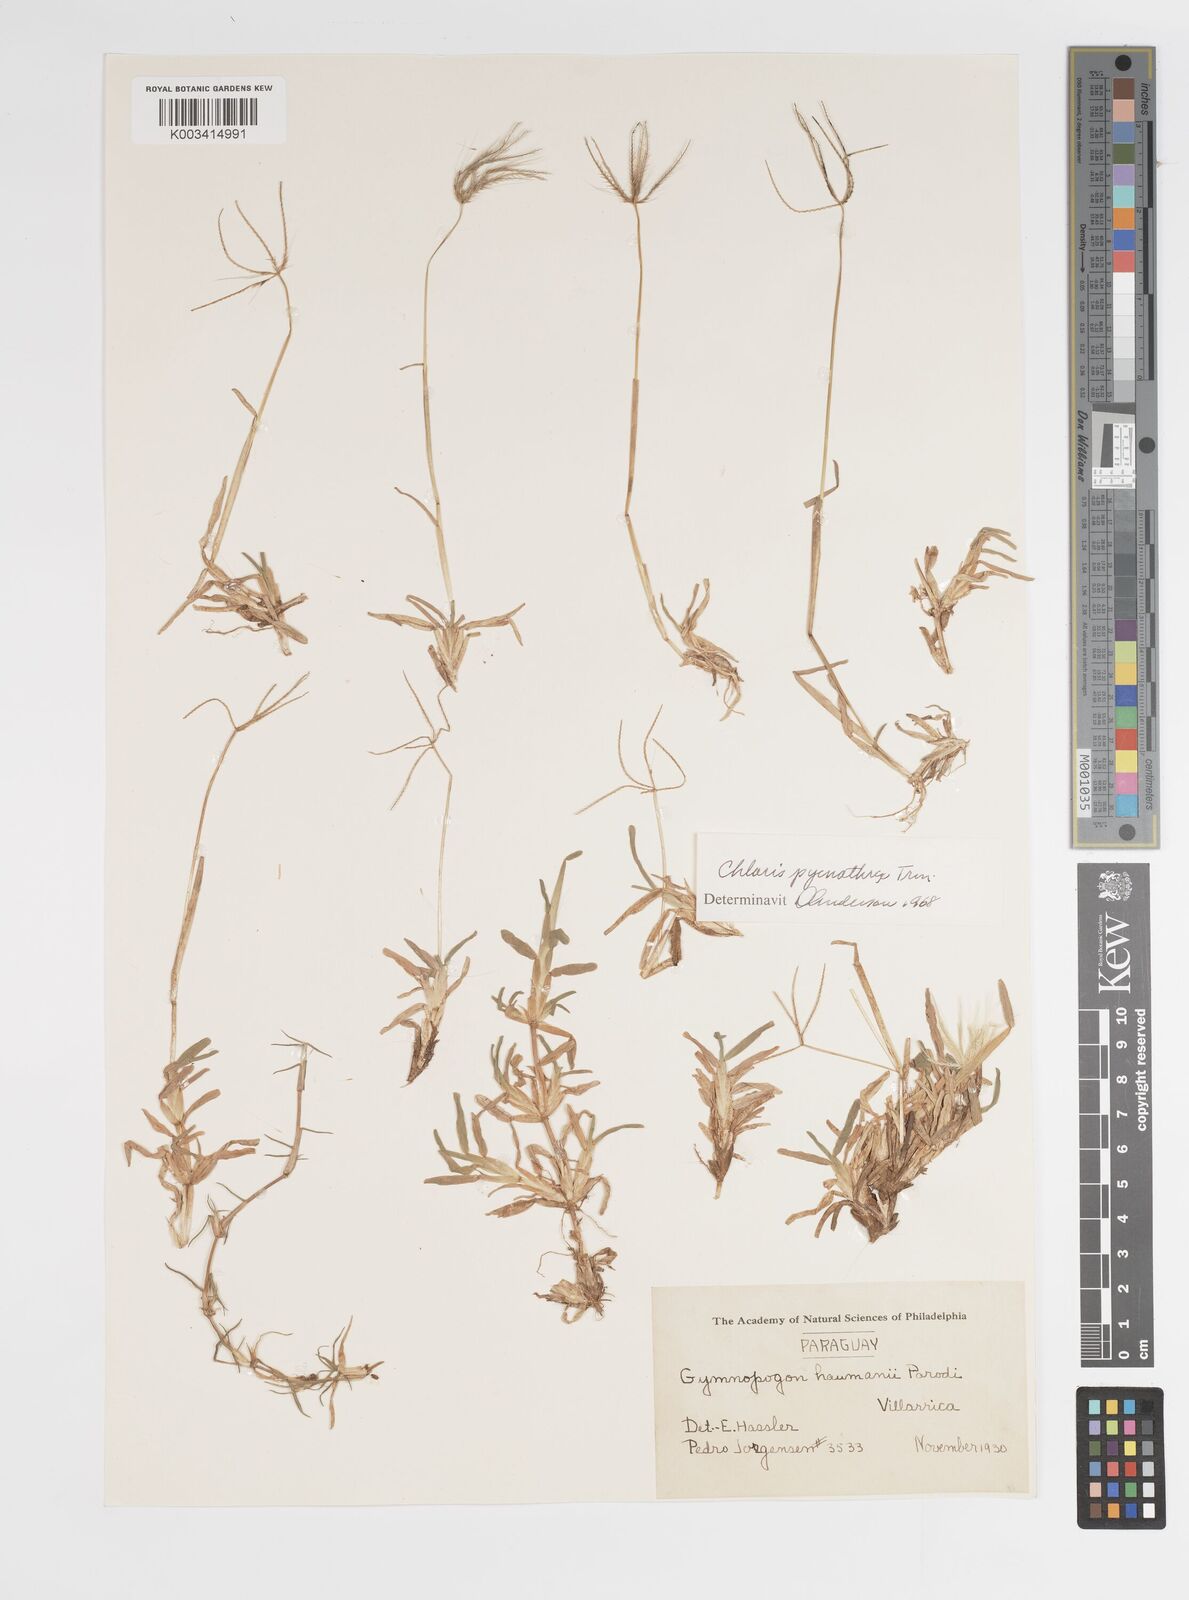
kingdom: Plantae
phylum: Tracheophyta
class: Liliopsida
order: Poales
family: Poaceae
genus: Chloris
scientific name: Chloris pycnothrix
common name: Spiderweb chloris
